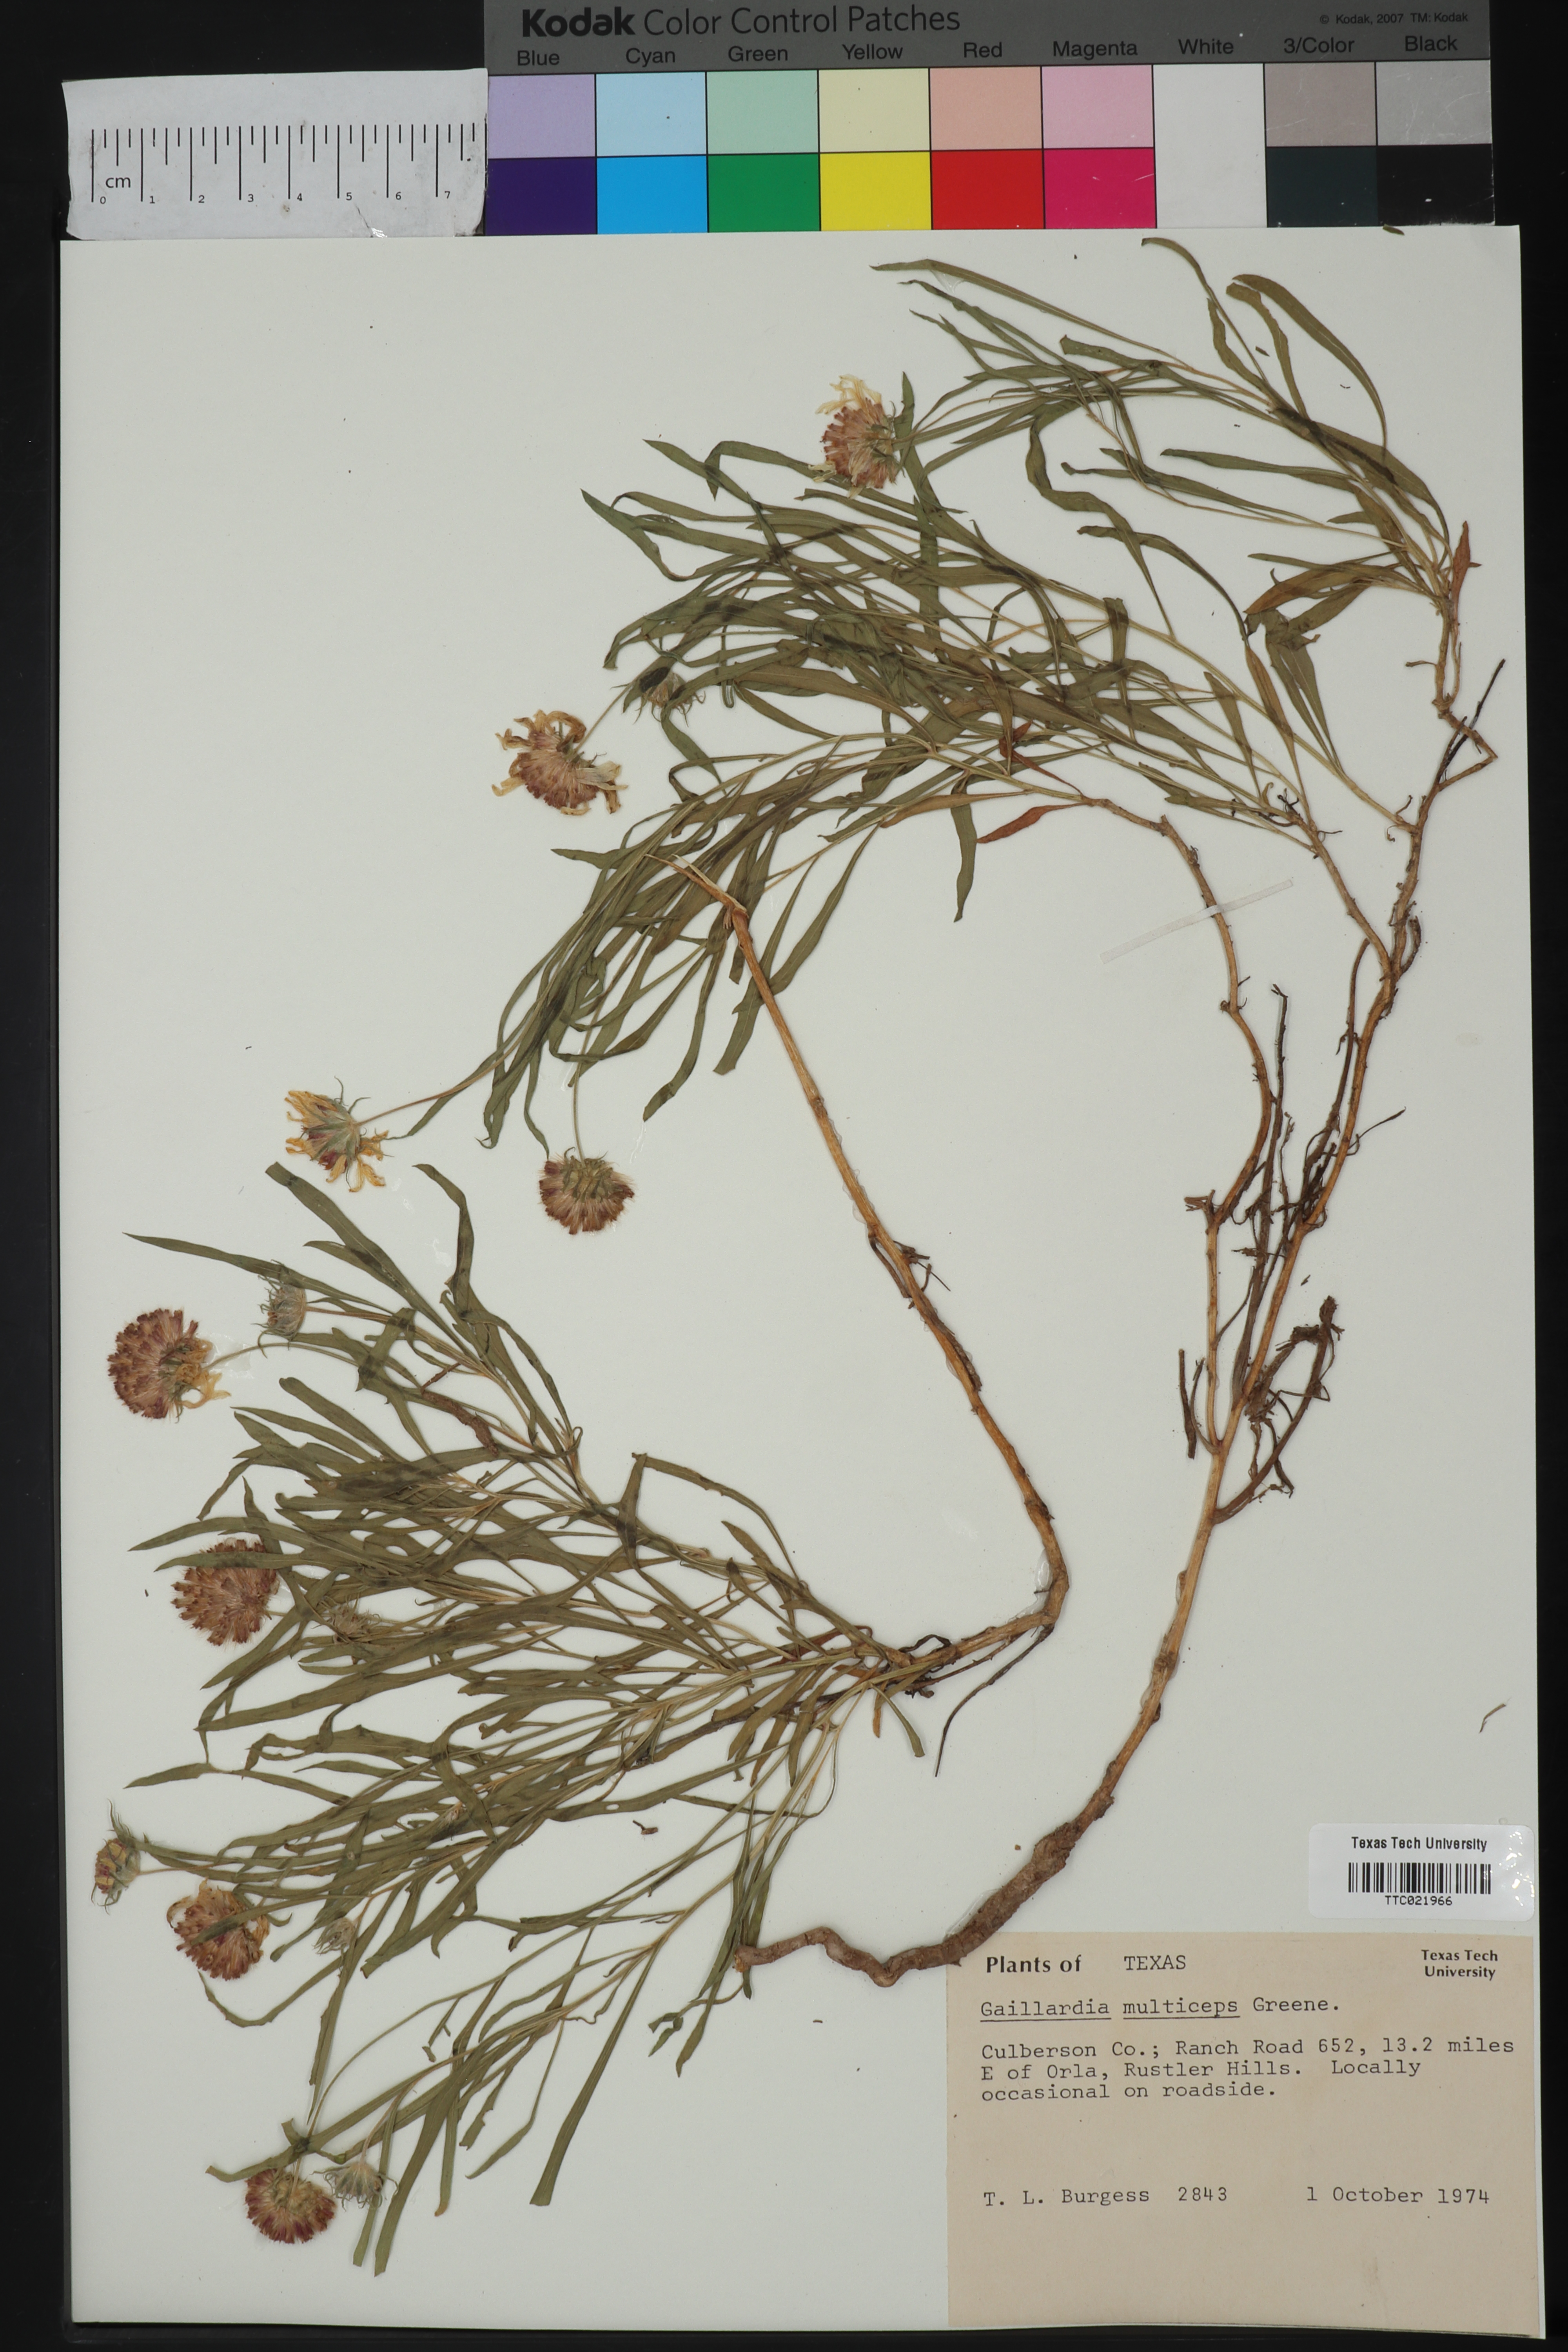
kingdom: Plantae
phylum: Tracheophyta
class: Magnoliopsida
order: Asterales
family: Asteraceae
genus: Gaillardia
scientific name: Gaillardia multiceps
